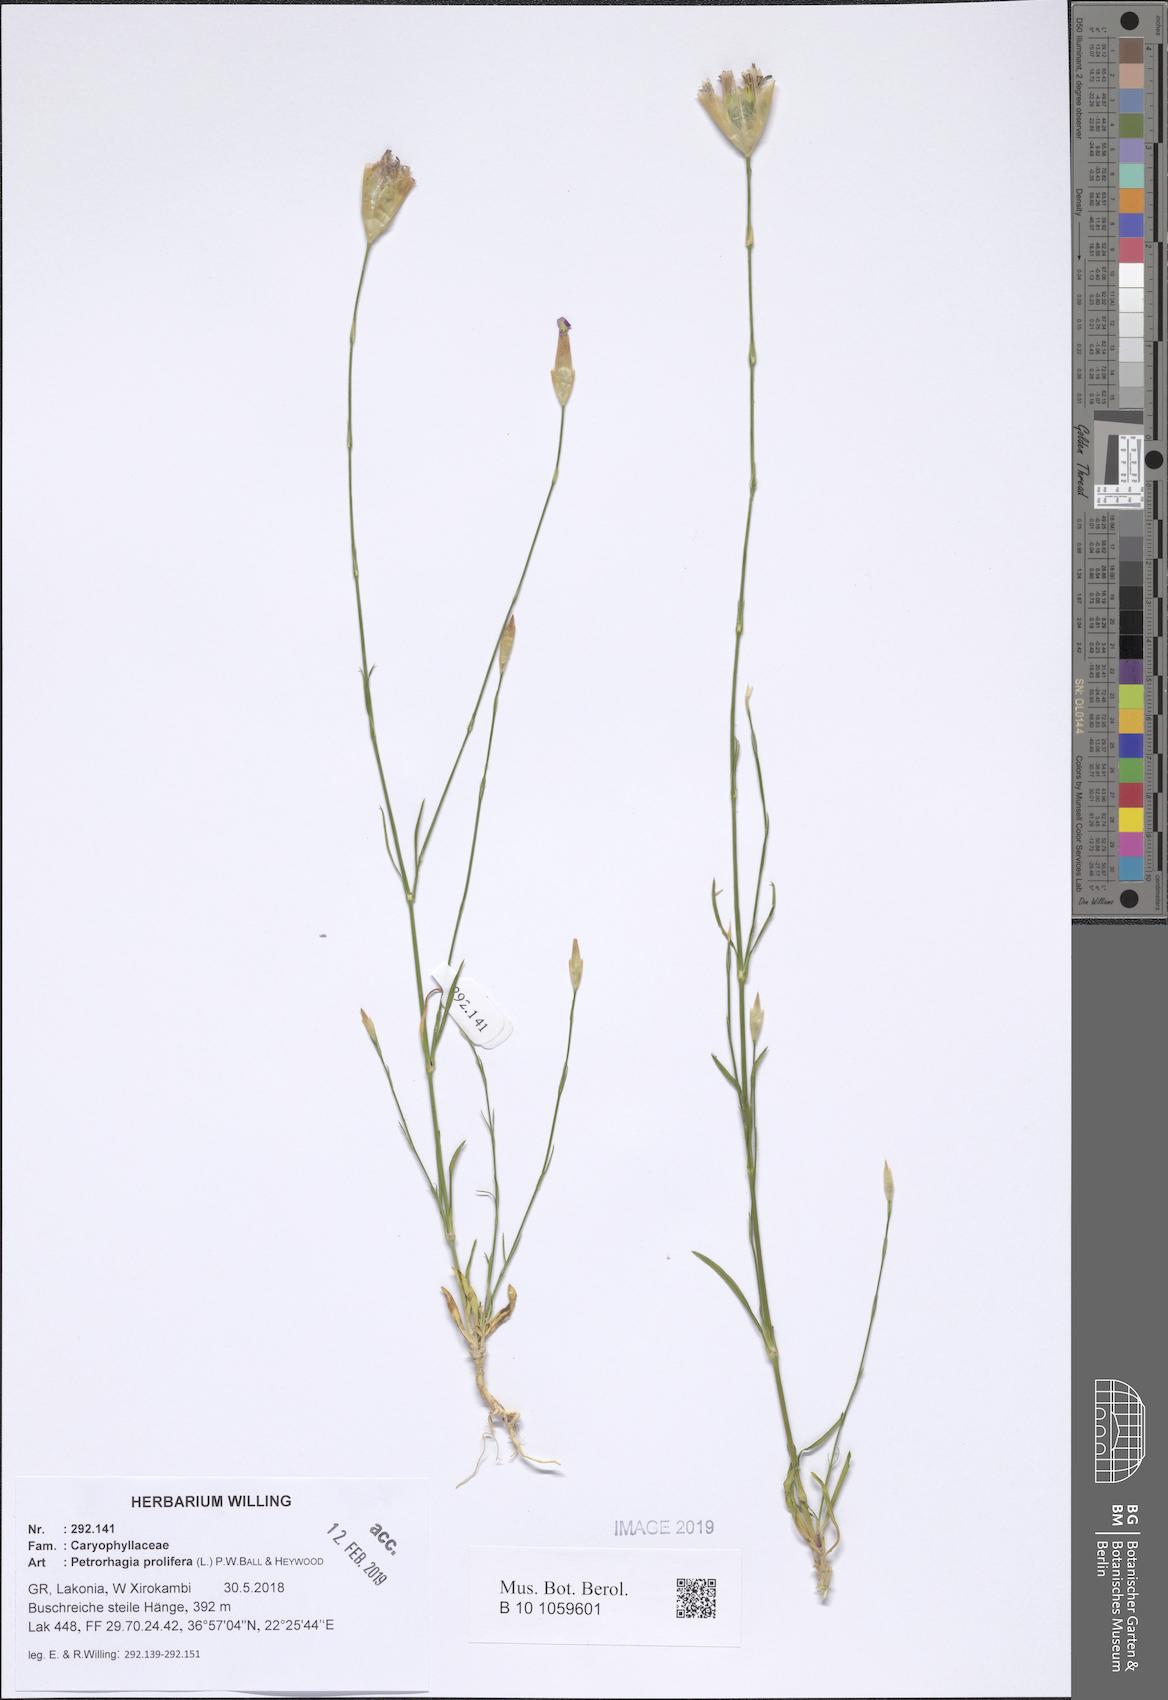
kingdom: Plantae
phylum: Tracheophyta
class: Magnoliopsida
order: Caryophyllales
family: Caryophyllaceae
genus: Petrorhagia
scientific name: Petrorhagia prolifera
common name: Proliferous pink
